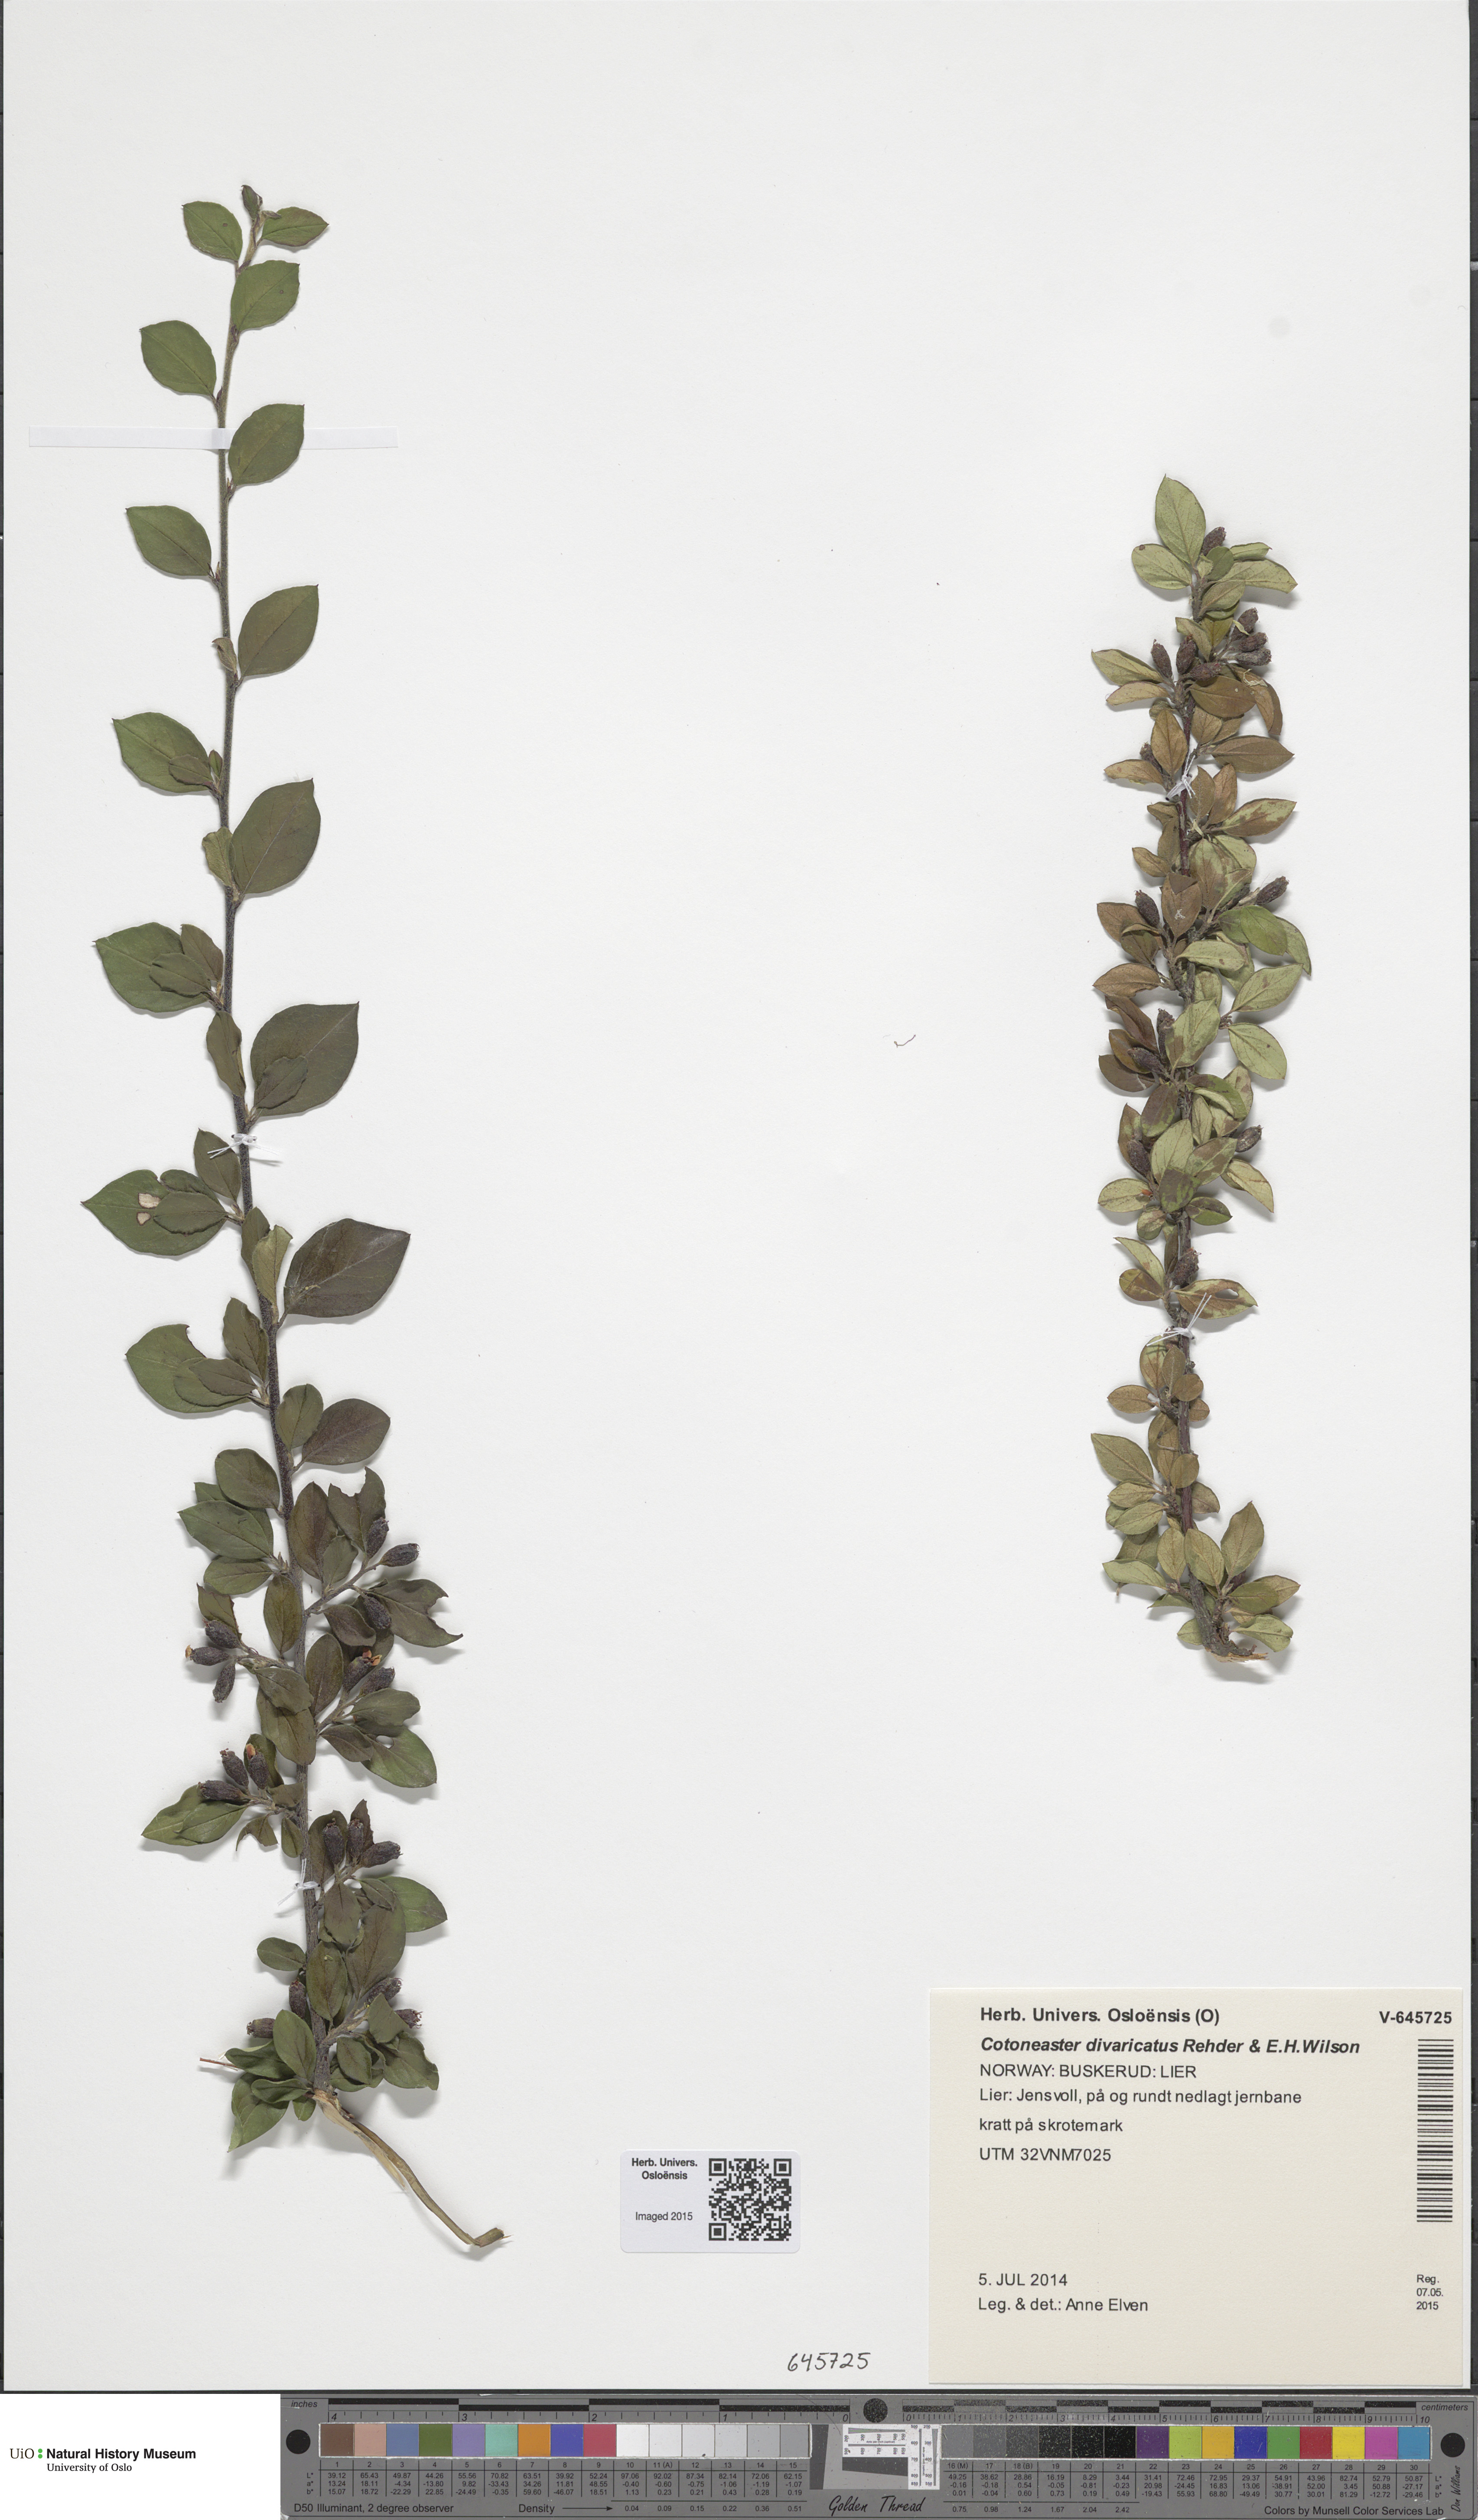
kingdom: Plantae
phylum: Tracheophyta
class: Magnoliopsida
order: Rosales
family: Rosaceae
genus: Cotoneaster
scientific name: Cotoneaster divaricatus
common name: Spreading cotoneaster
